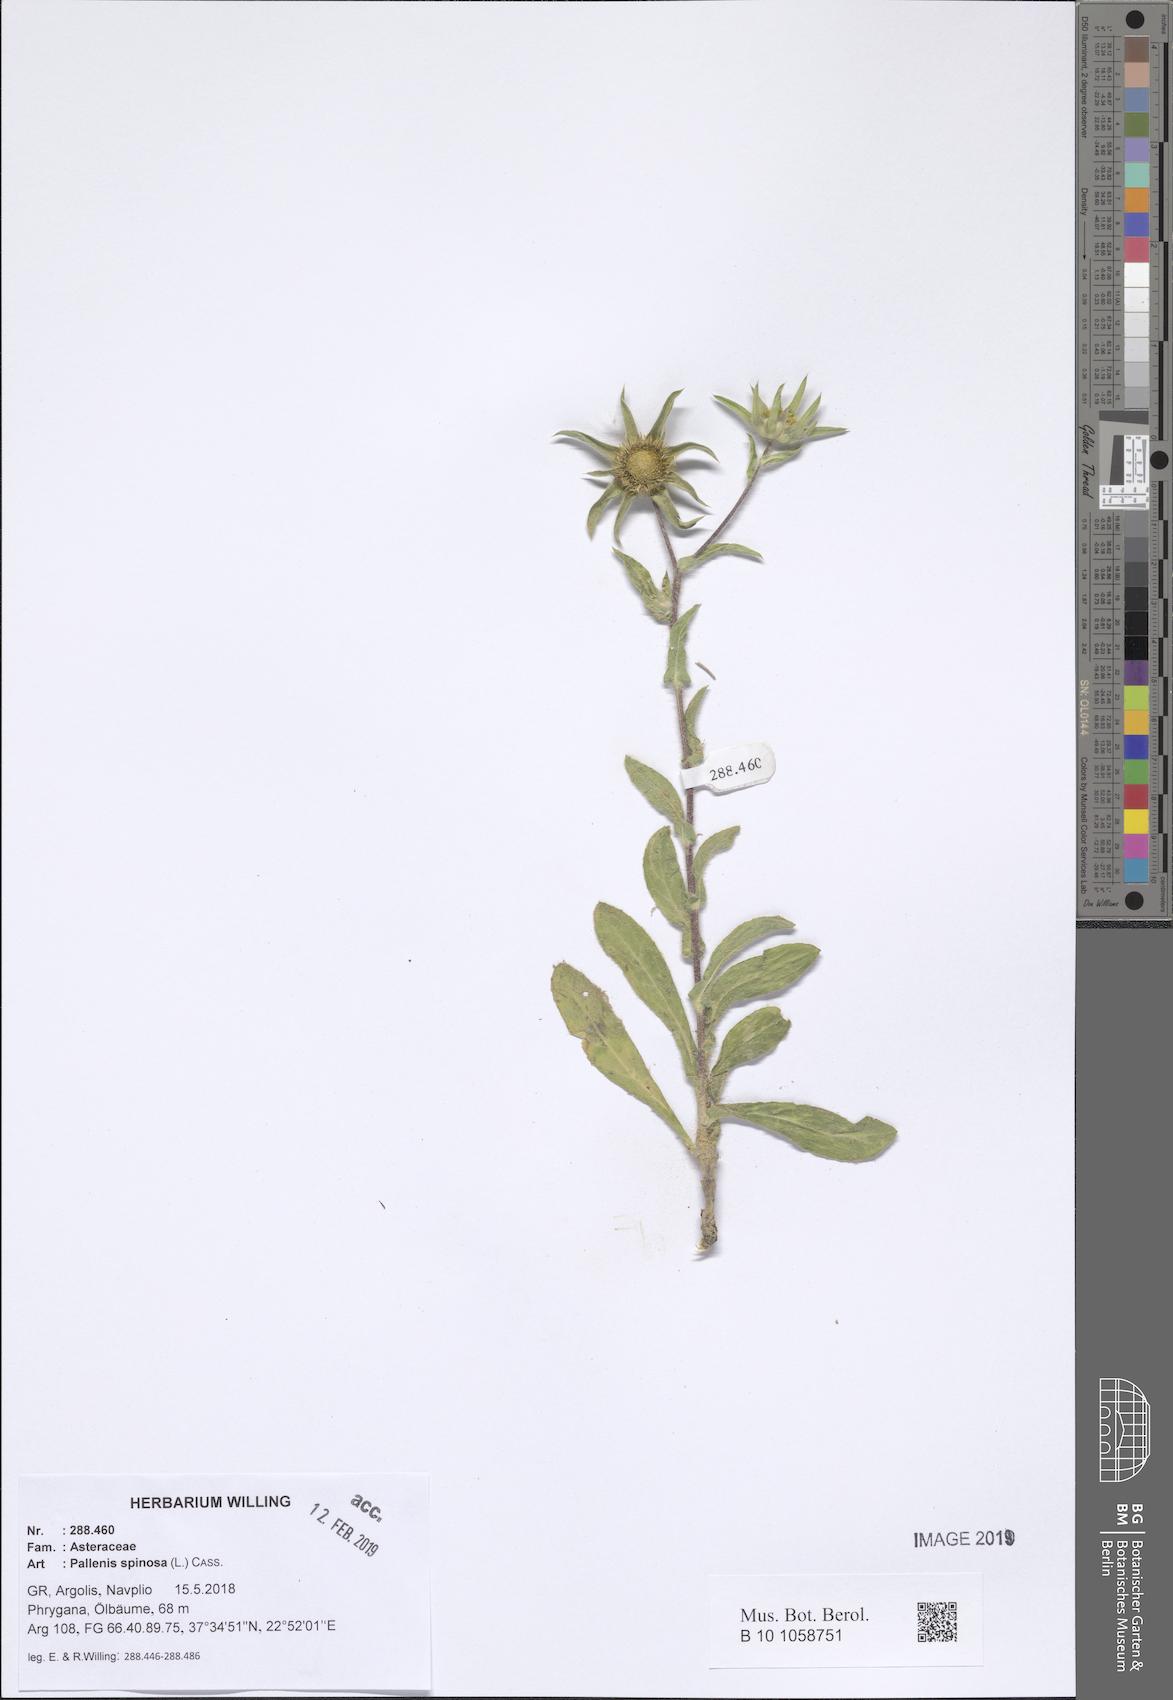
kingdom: Plantae
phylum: Tracheophyta
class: Magnoliopsida
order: Asterales
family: Asteraceae
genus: Pallenis
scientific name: Pallenis spinosa
